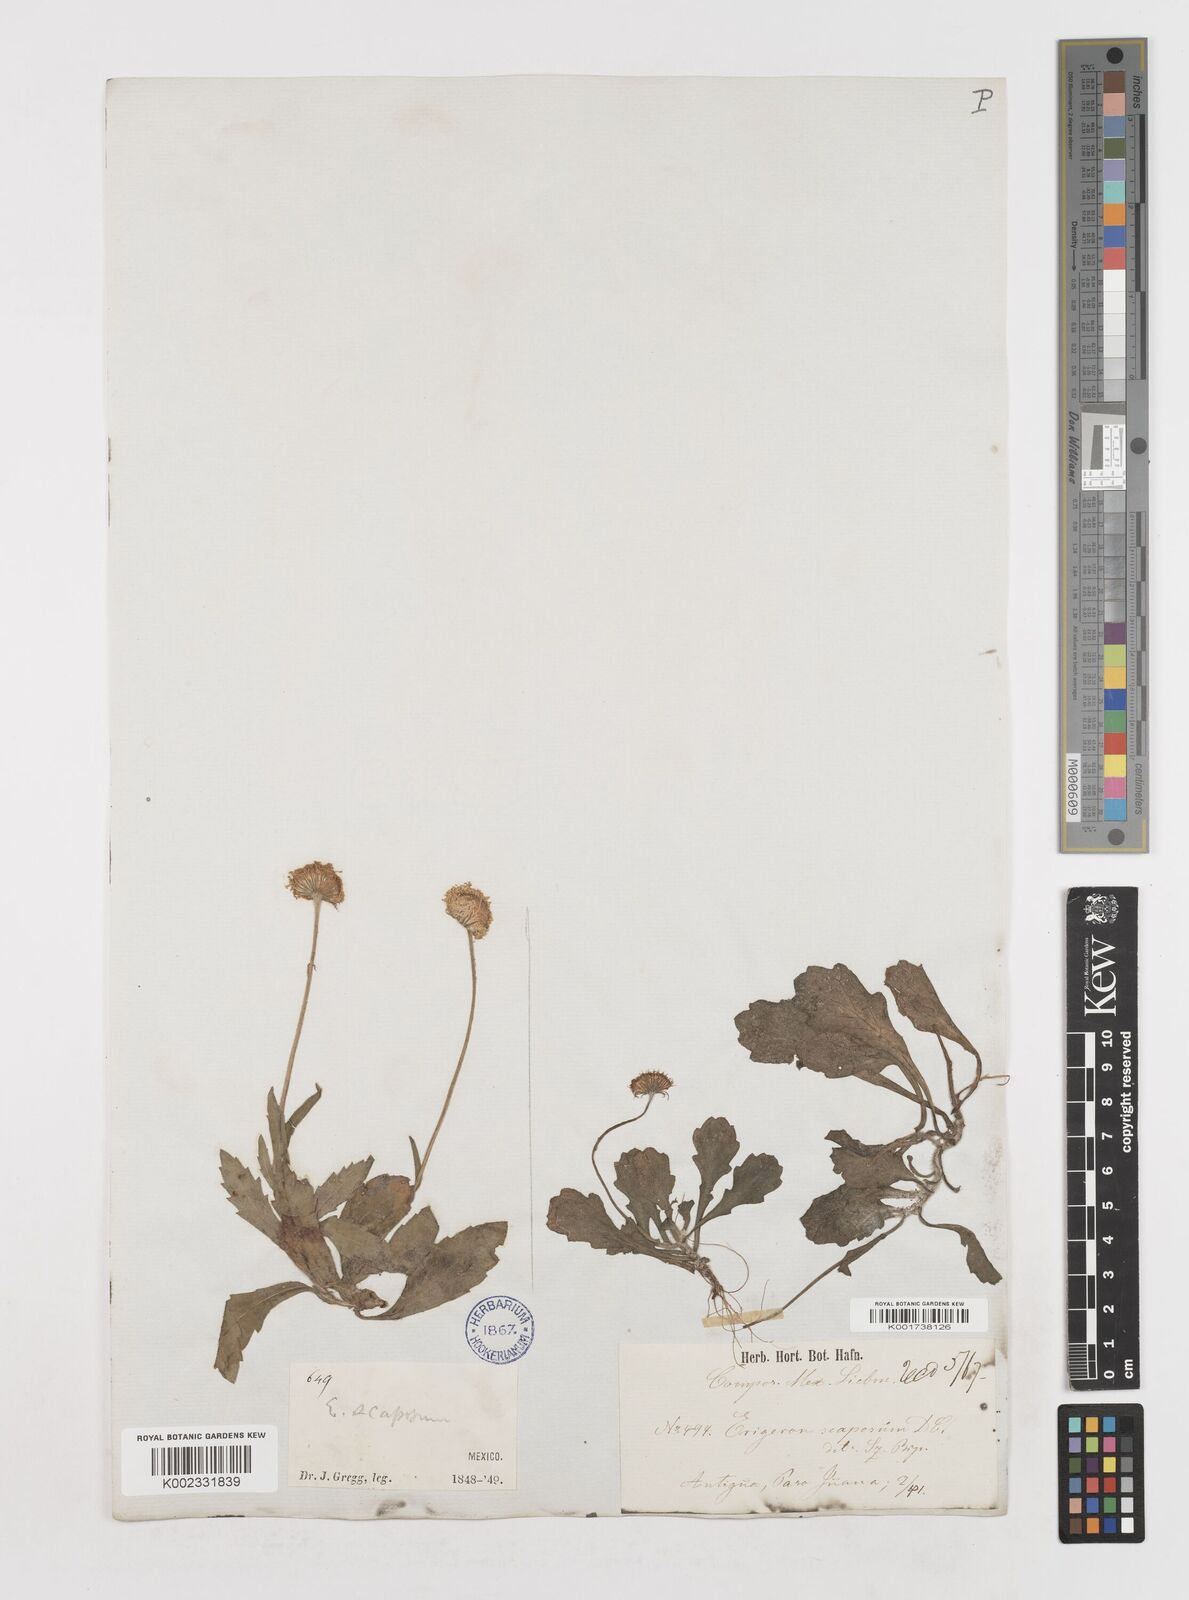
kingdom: Plantae
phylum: Tracheophyta
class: Magnoliopsida
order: Asterales
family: Asteraceae
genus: Erigeron
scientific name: Erigeron longipes
